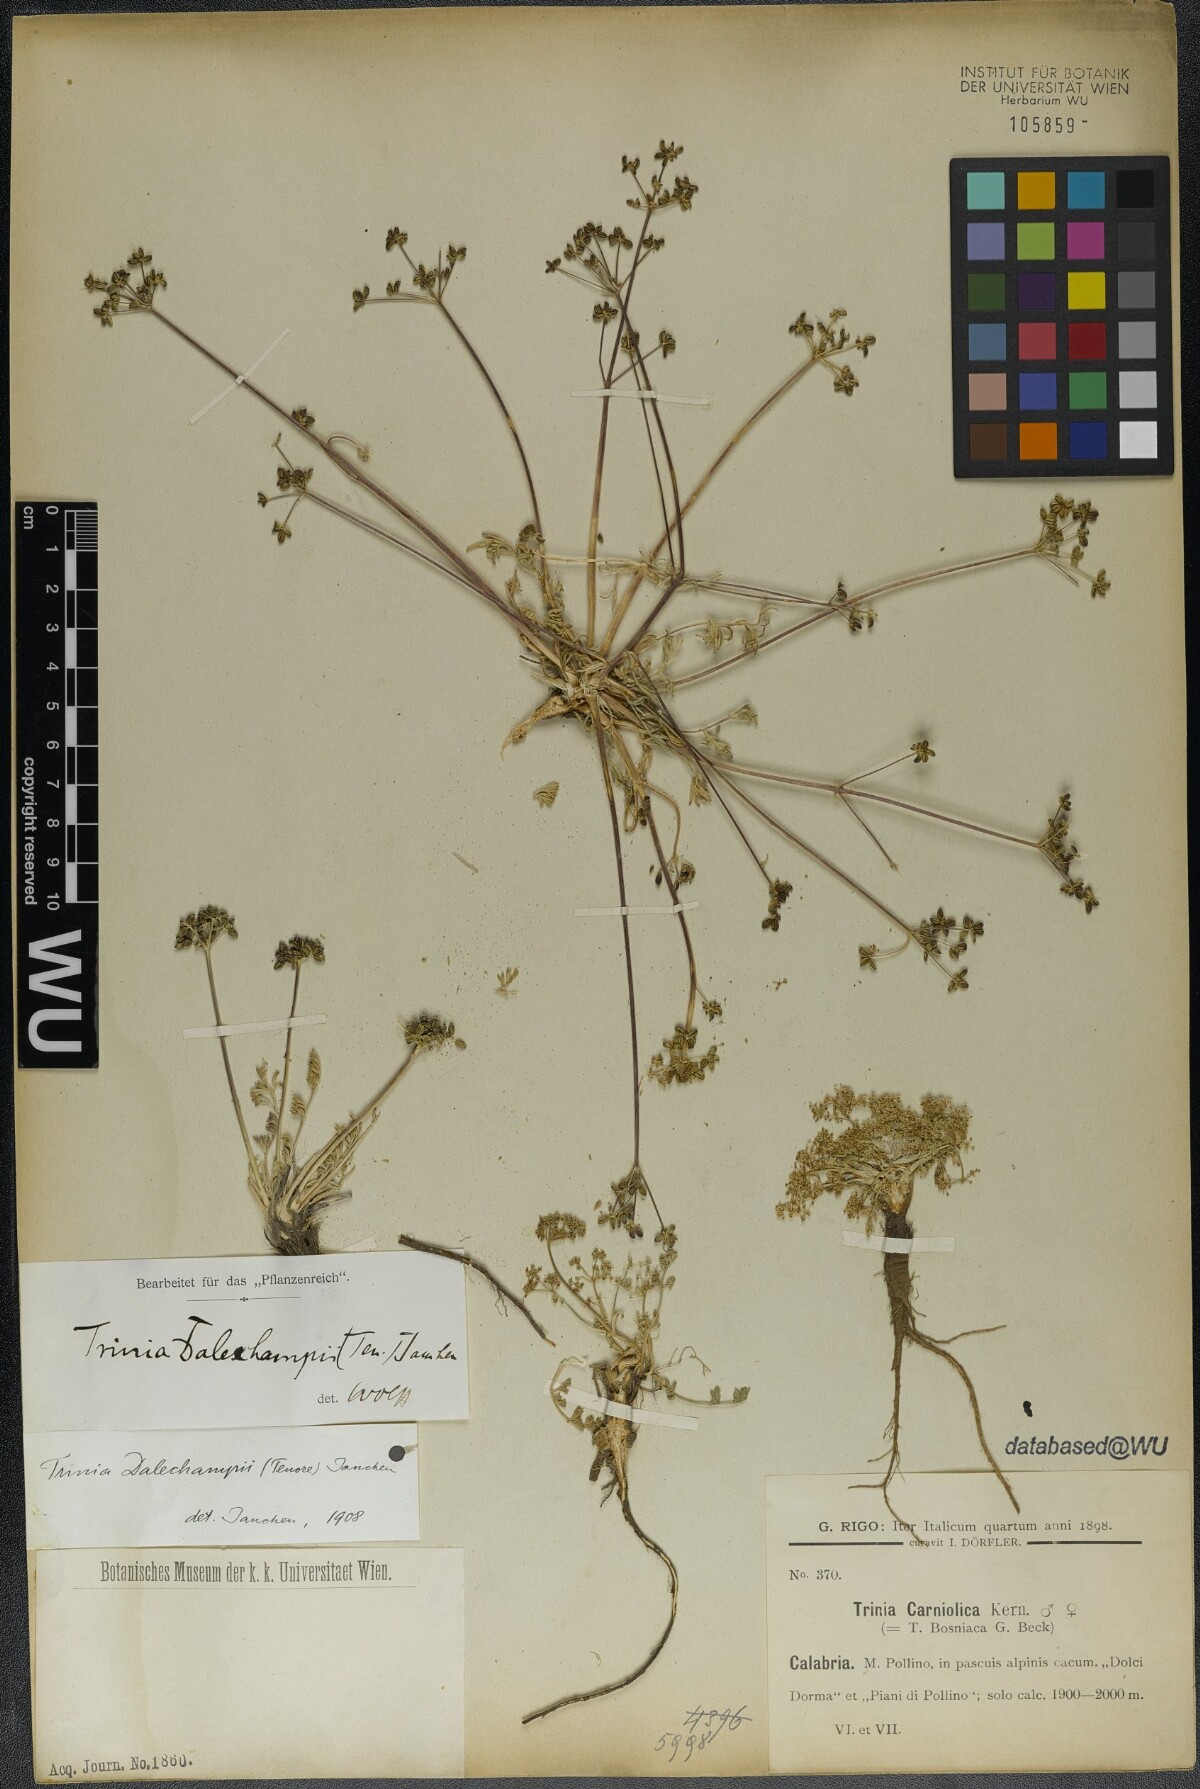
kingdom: Plantae
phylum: Tracheophyta
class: Magnoliopsida
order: Apiales
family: Apiaceae
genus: Trinia
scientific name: Trinia dalechampii
